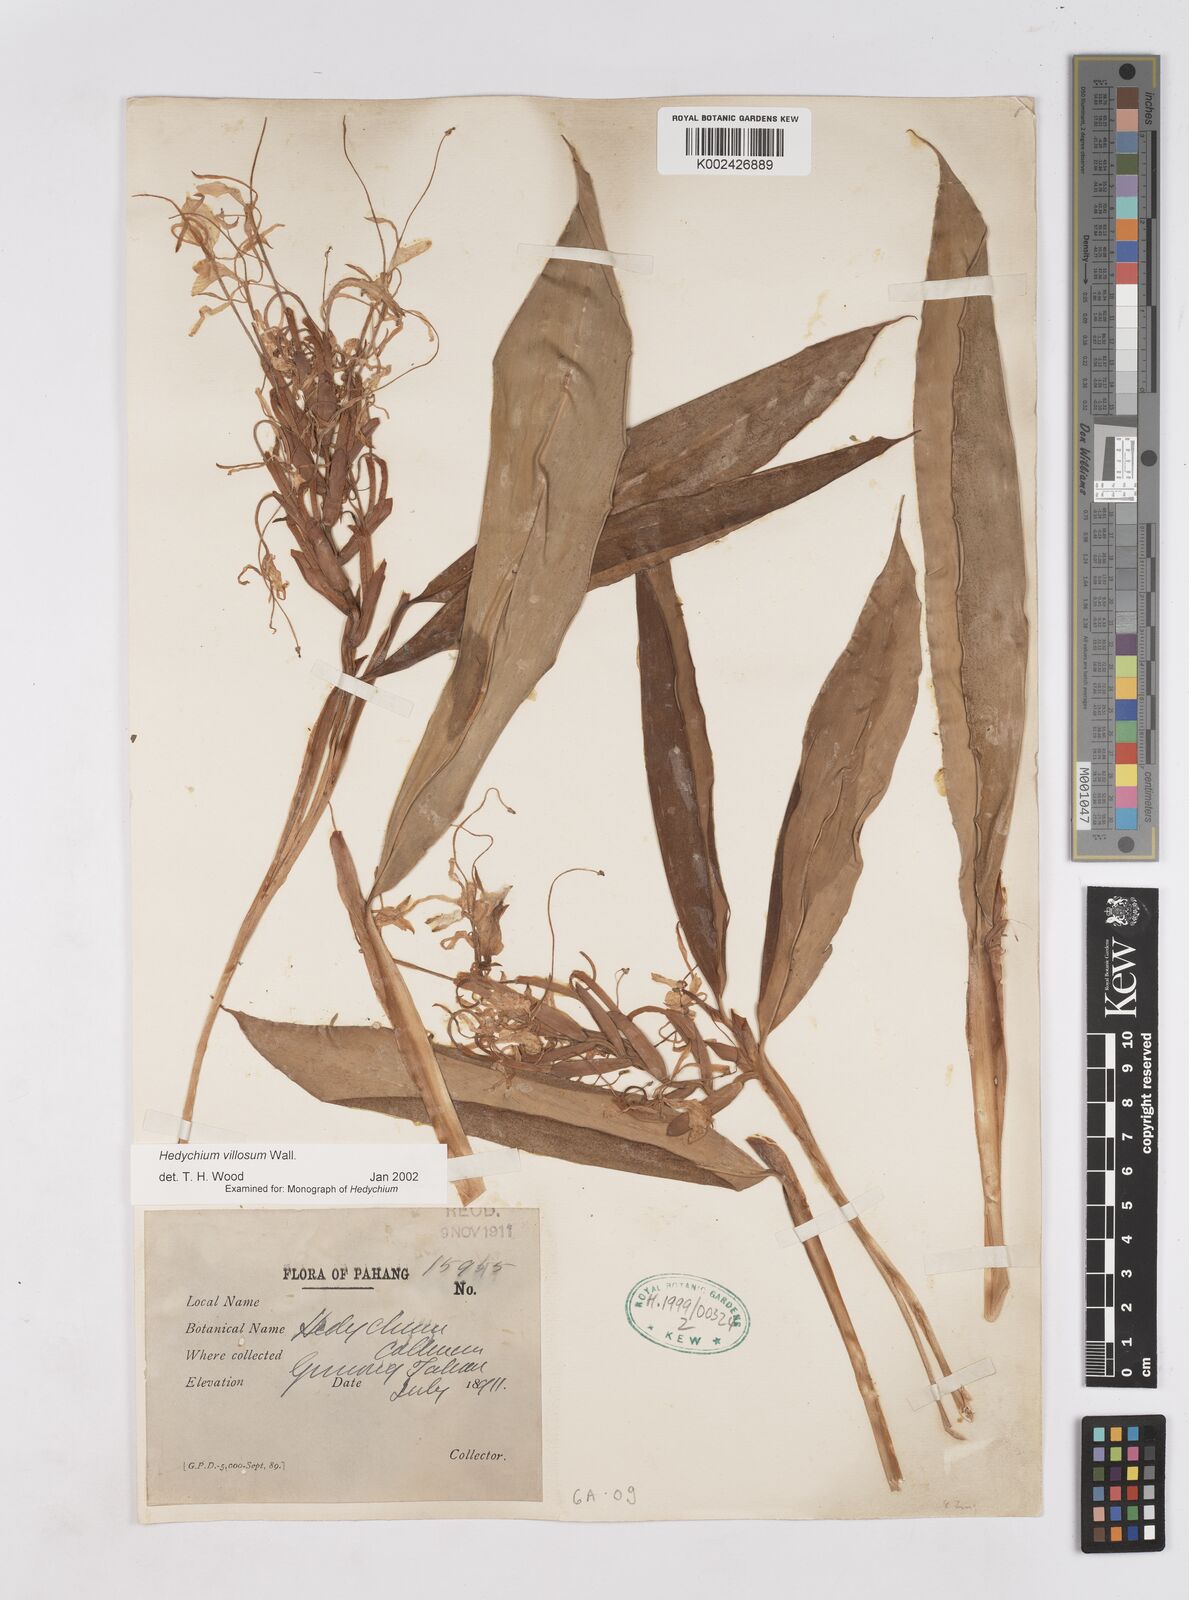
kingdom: Plantae
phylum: Tracheophyta
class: Liliopsida
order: Zingiberales
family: Zingiberaceae
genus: Hedychium
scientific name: Hedychium villosum
